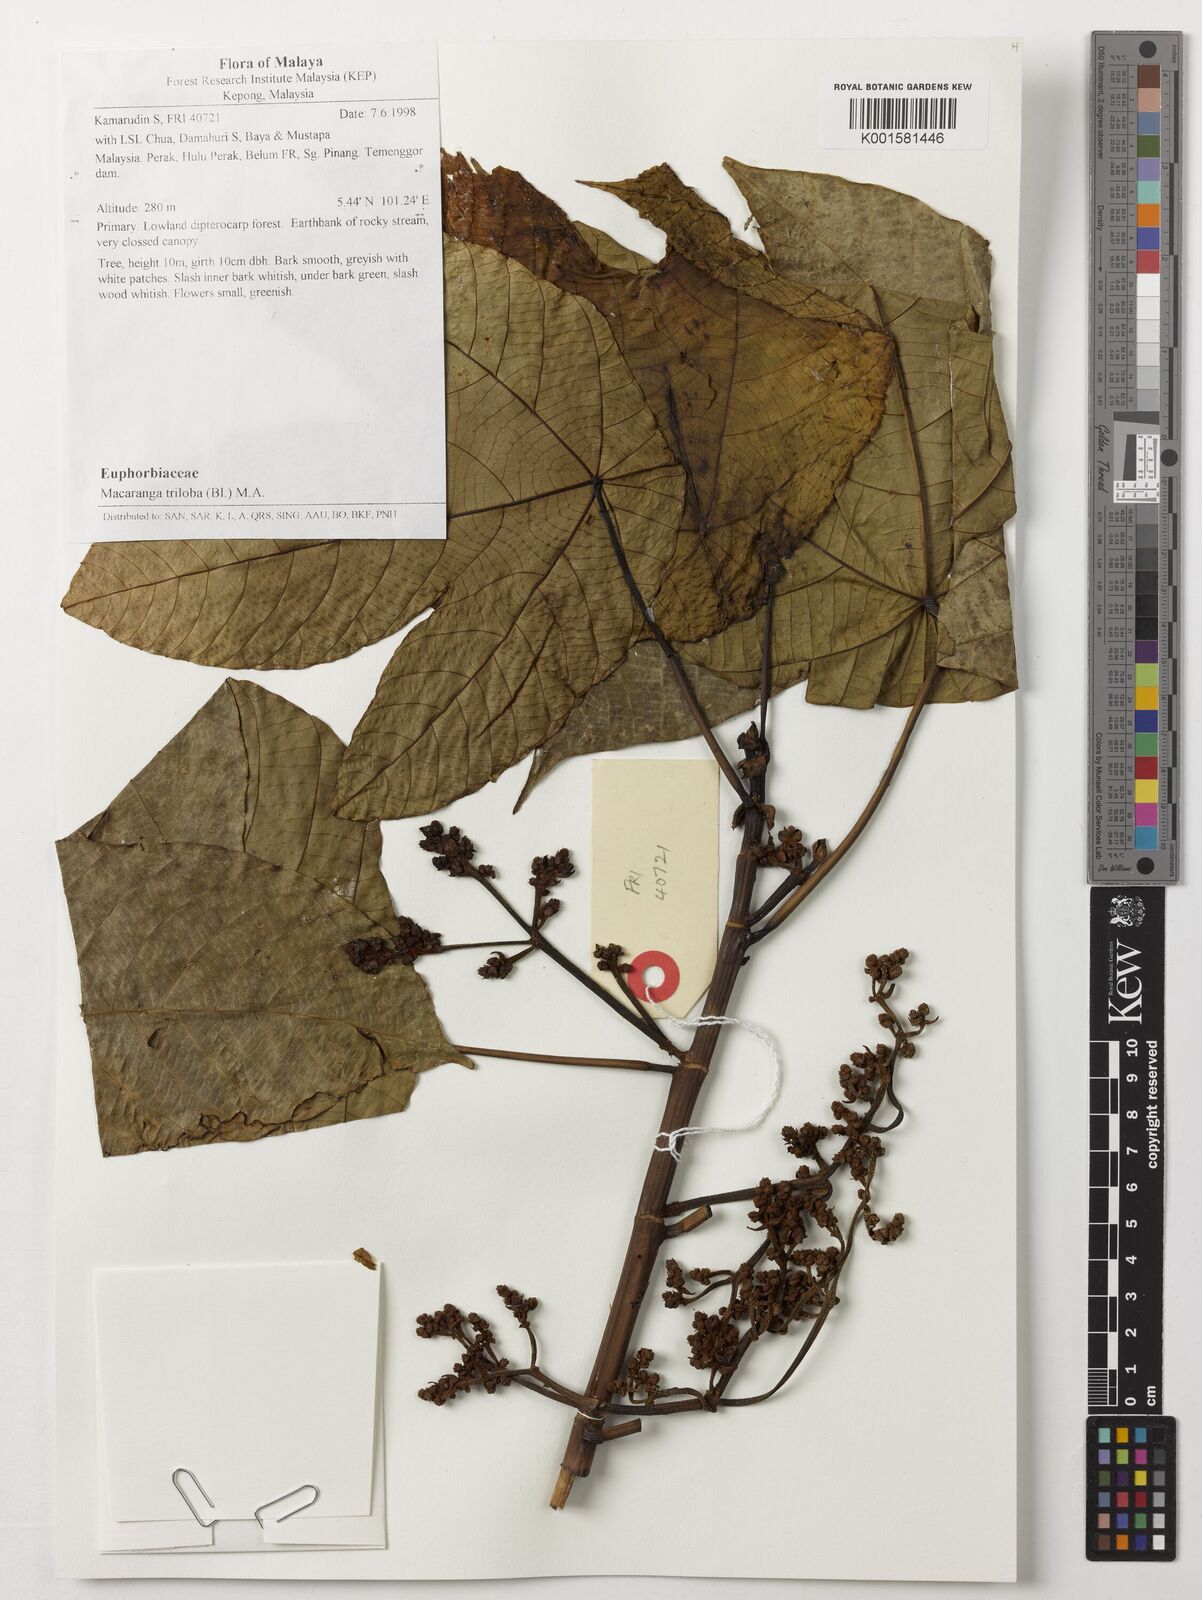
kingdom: Plantae
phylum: Tracheophyta
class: Magnoliopsida
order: Malpighiales
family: Euphorbiaceae
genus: Macaranga
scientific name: Macaranga triloba
